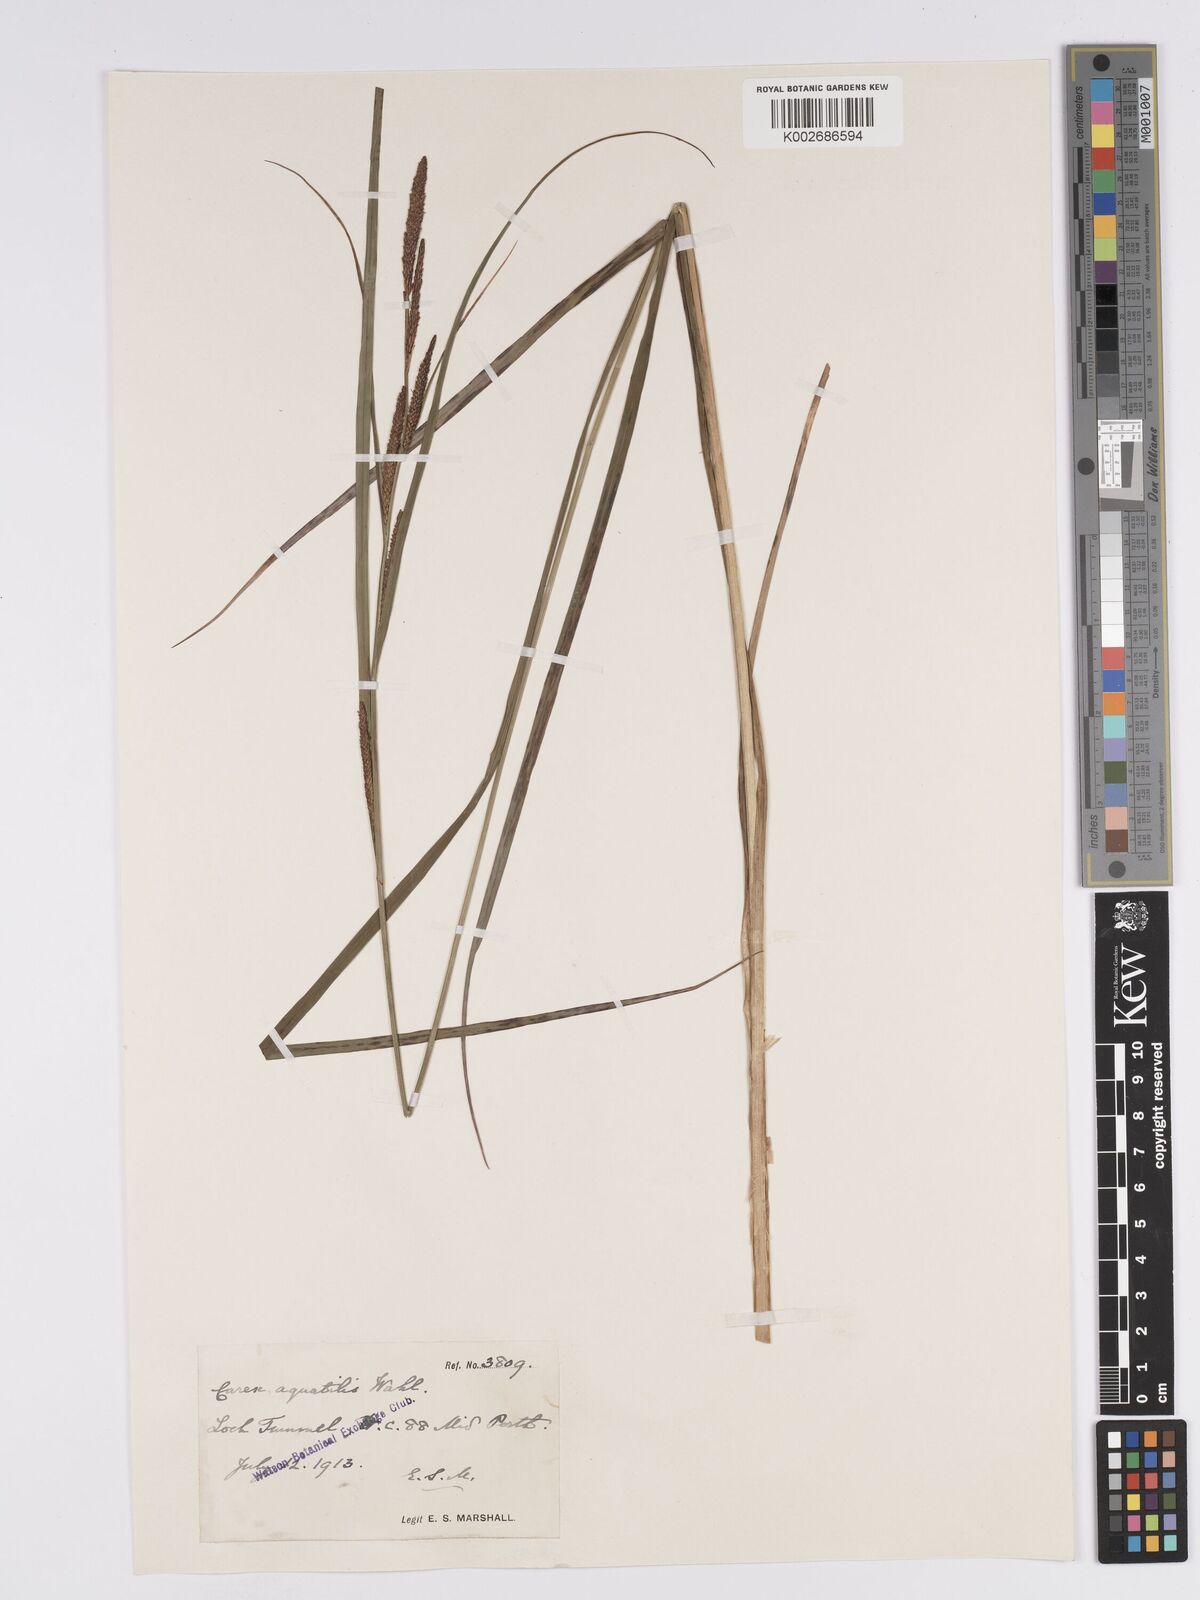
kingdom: Plantae
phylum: Tracheophyta
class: Liliopsida
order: Poales
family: Cyperaceae
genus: Carex
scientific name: Carex aquatilis
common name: Water sedge
